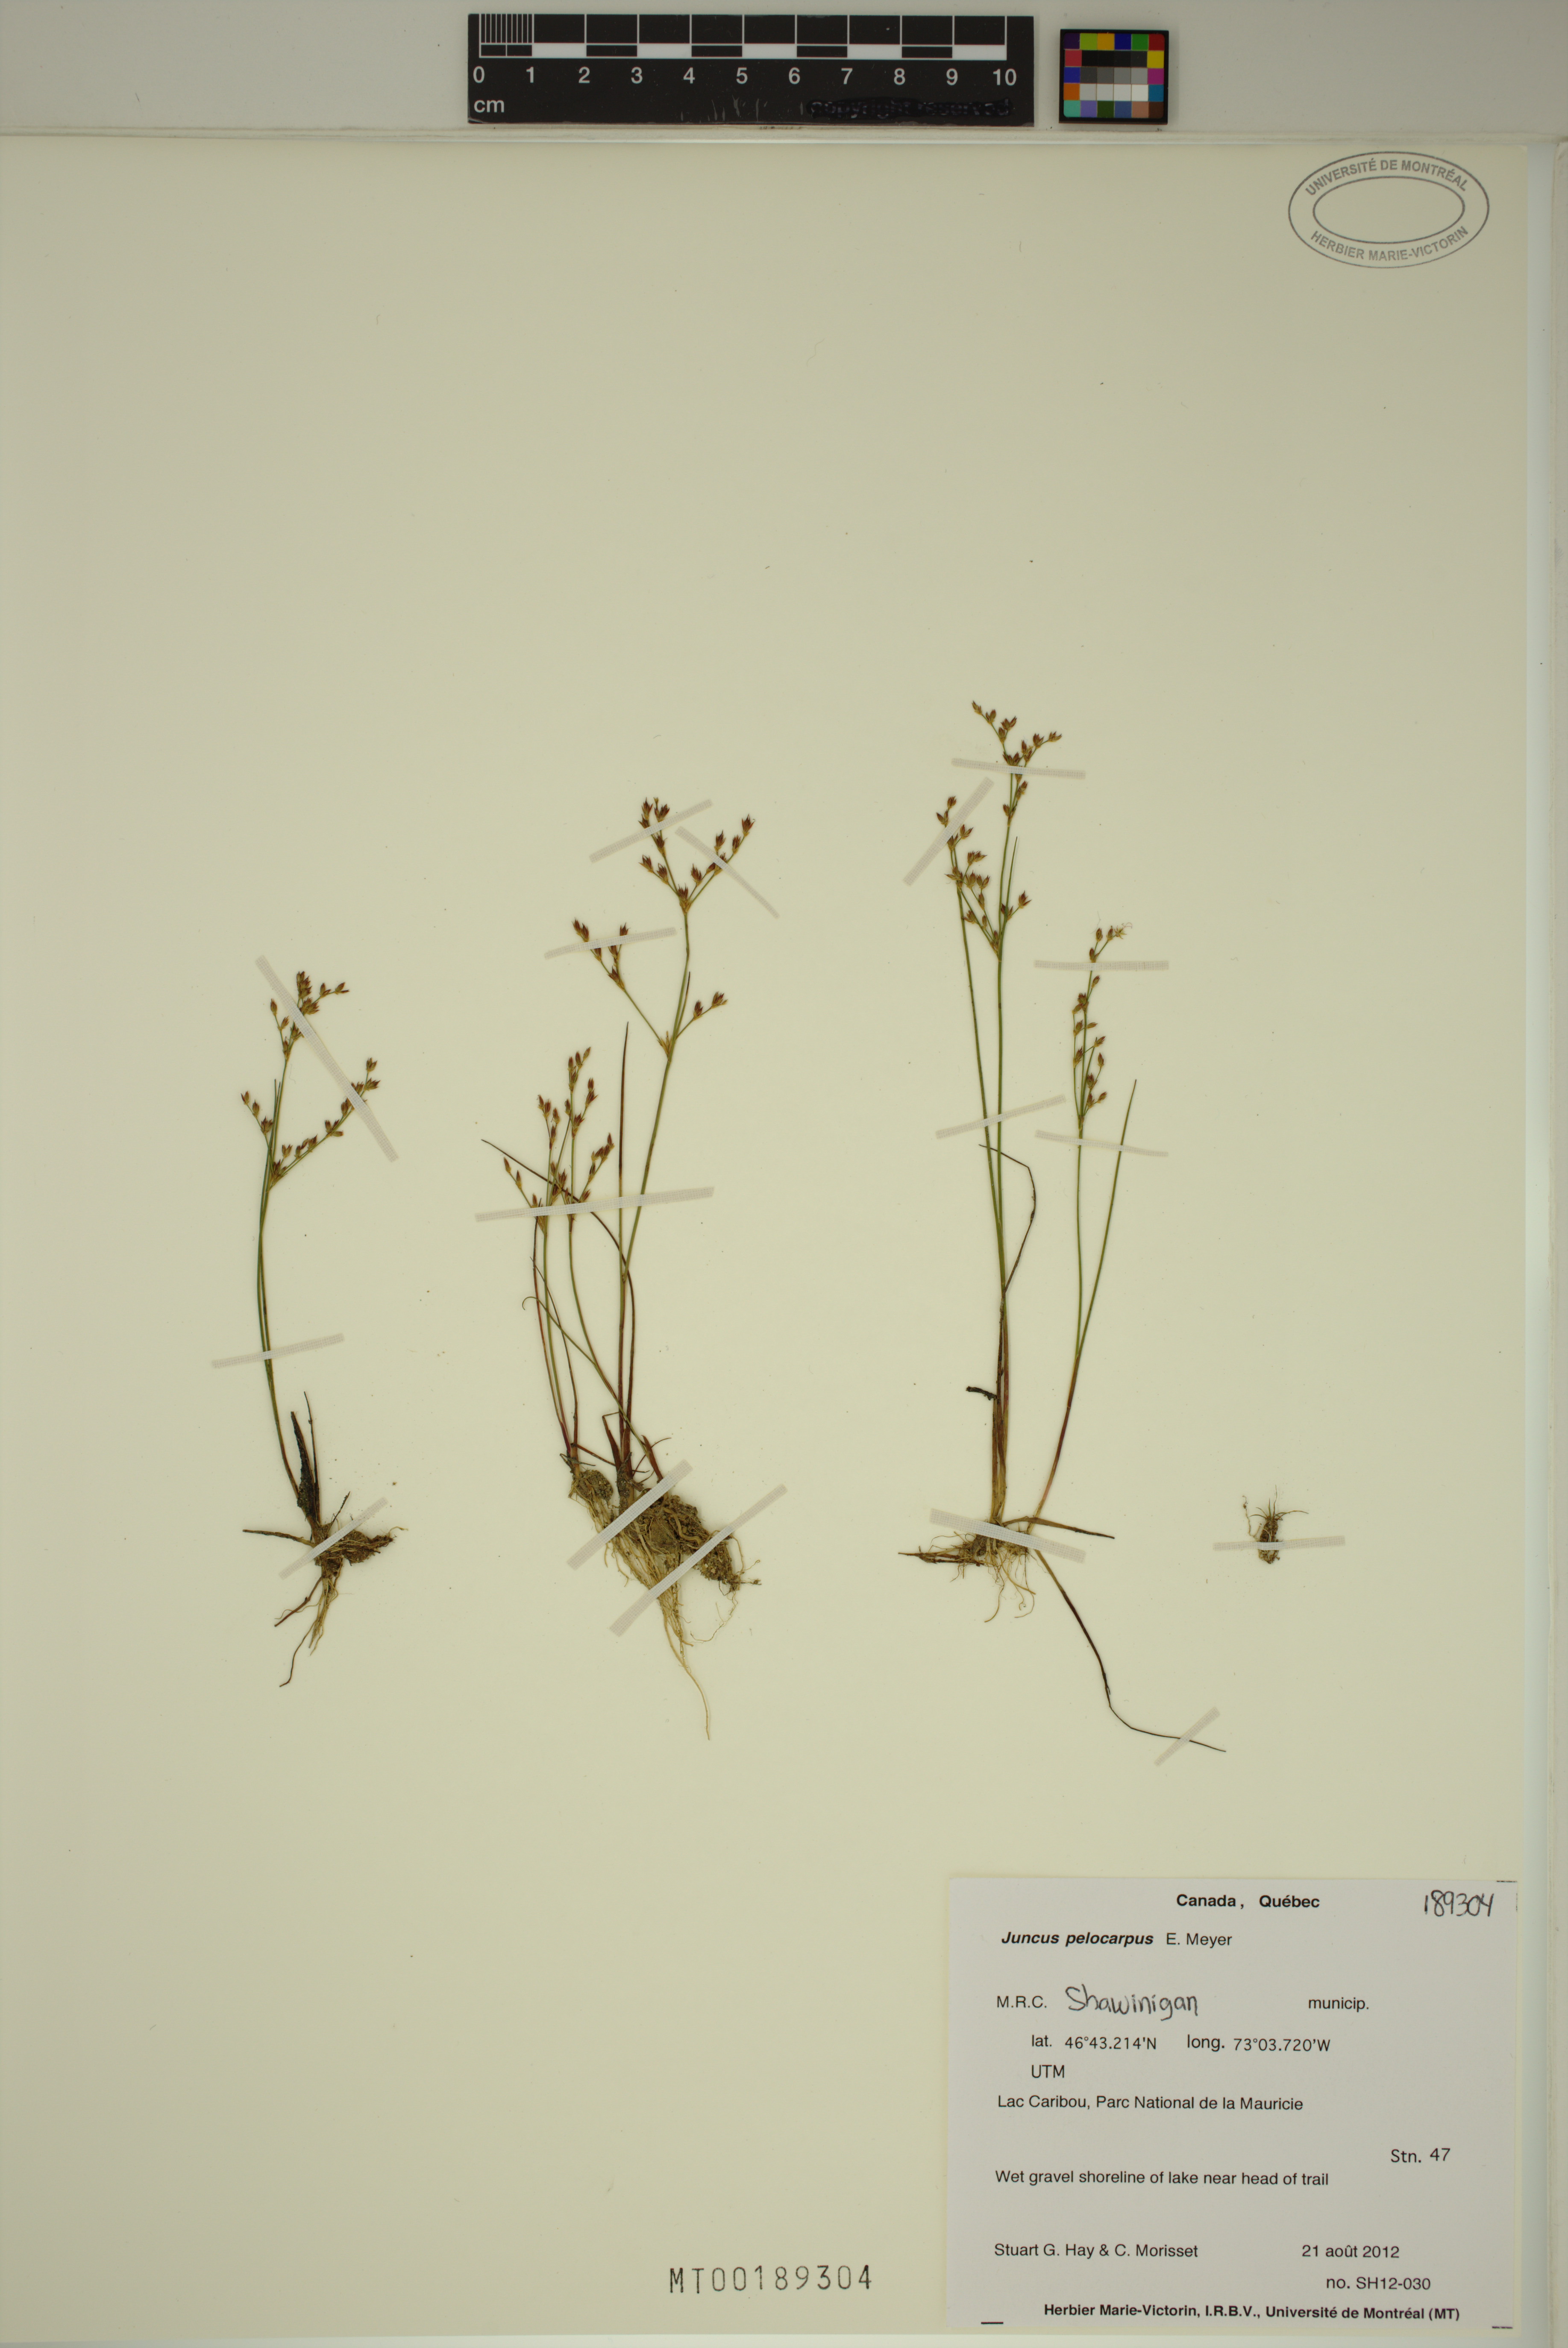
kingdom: Plantae
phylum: Tracheophyta
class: Liliopsida
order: Poales
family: Juncaceae
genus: Juncus
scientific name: Juncus pelocarpus
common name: Brown-fruited rush
